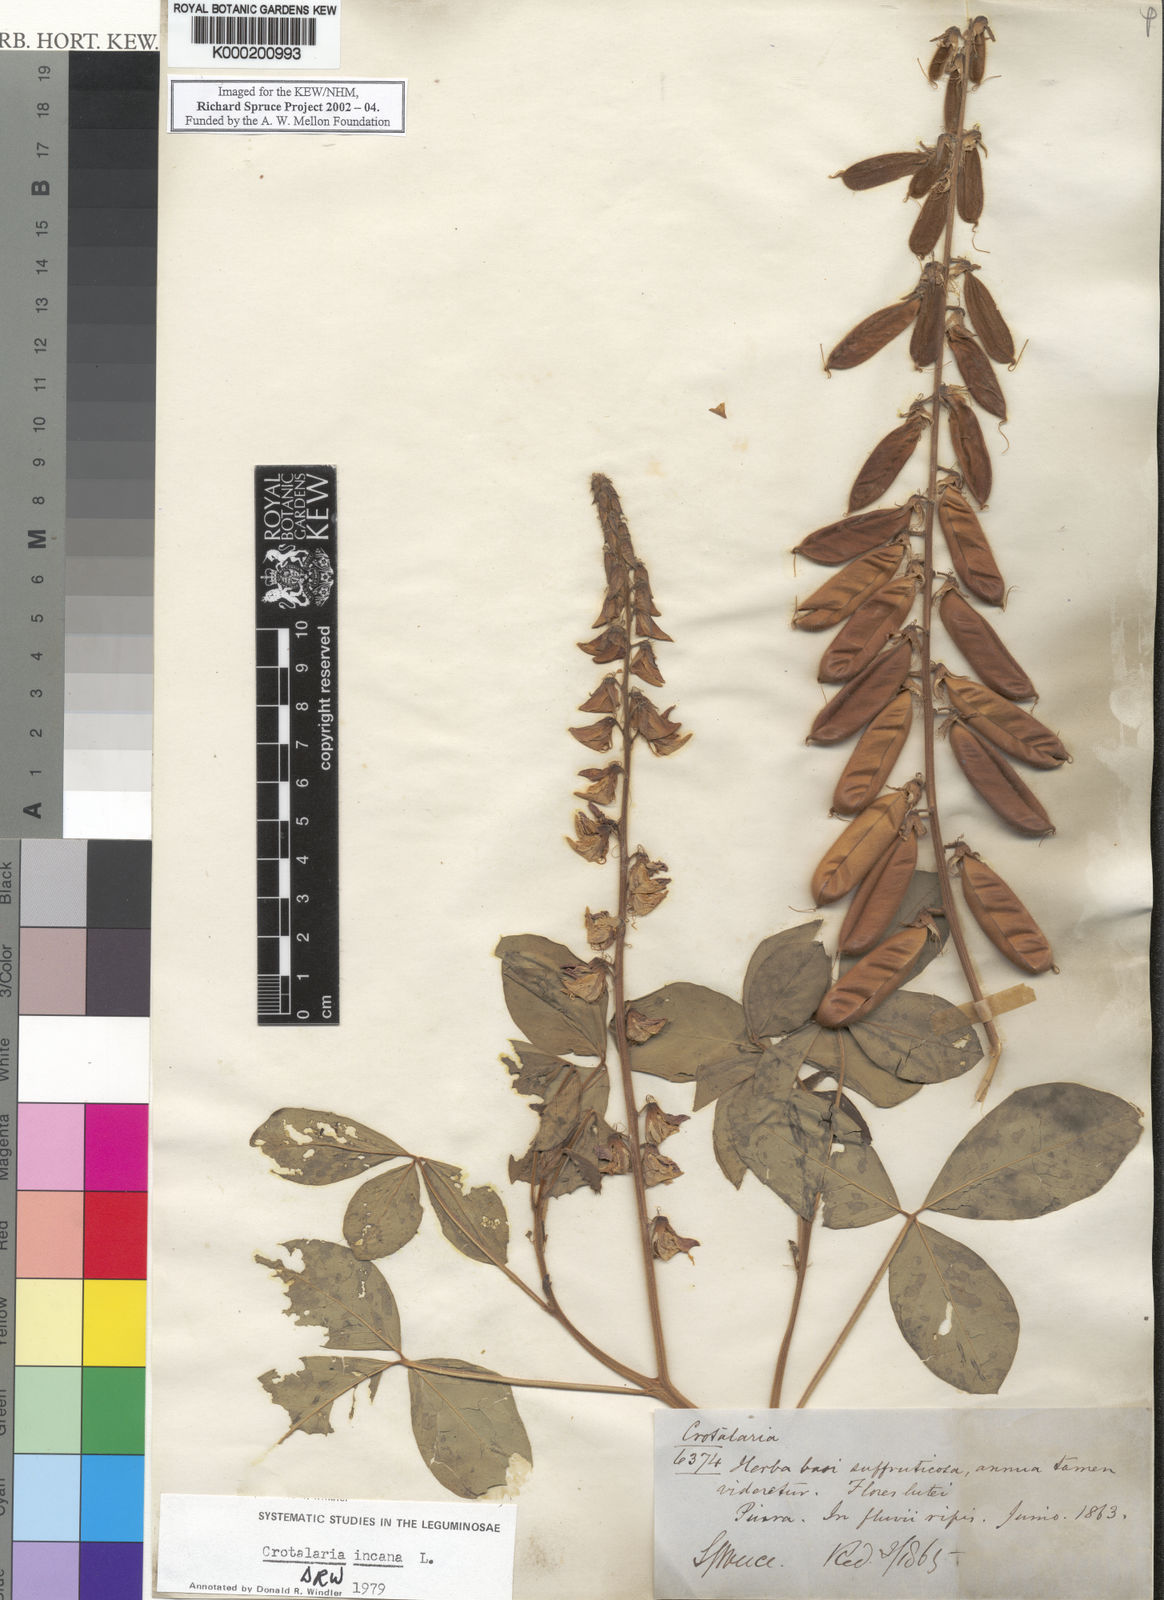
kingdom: Plantae
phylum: Tracheophyta
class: Magnoliopsida
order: Fabales
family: Fabaceae
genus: Crotalaria
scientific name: Crotalaria incana
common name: Shakeshake
